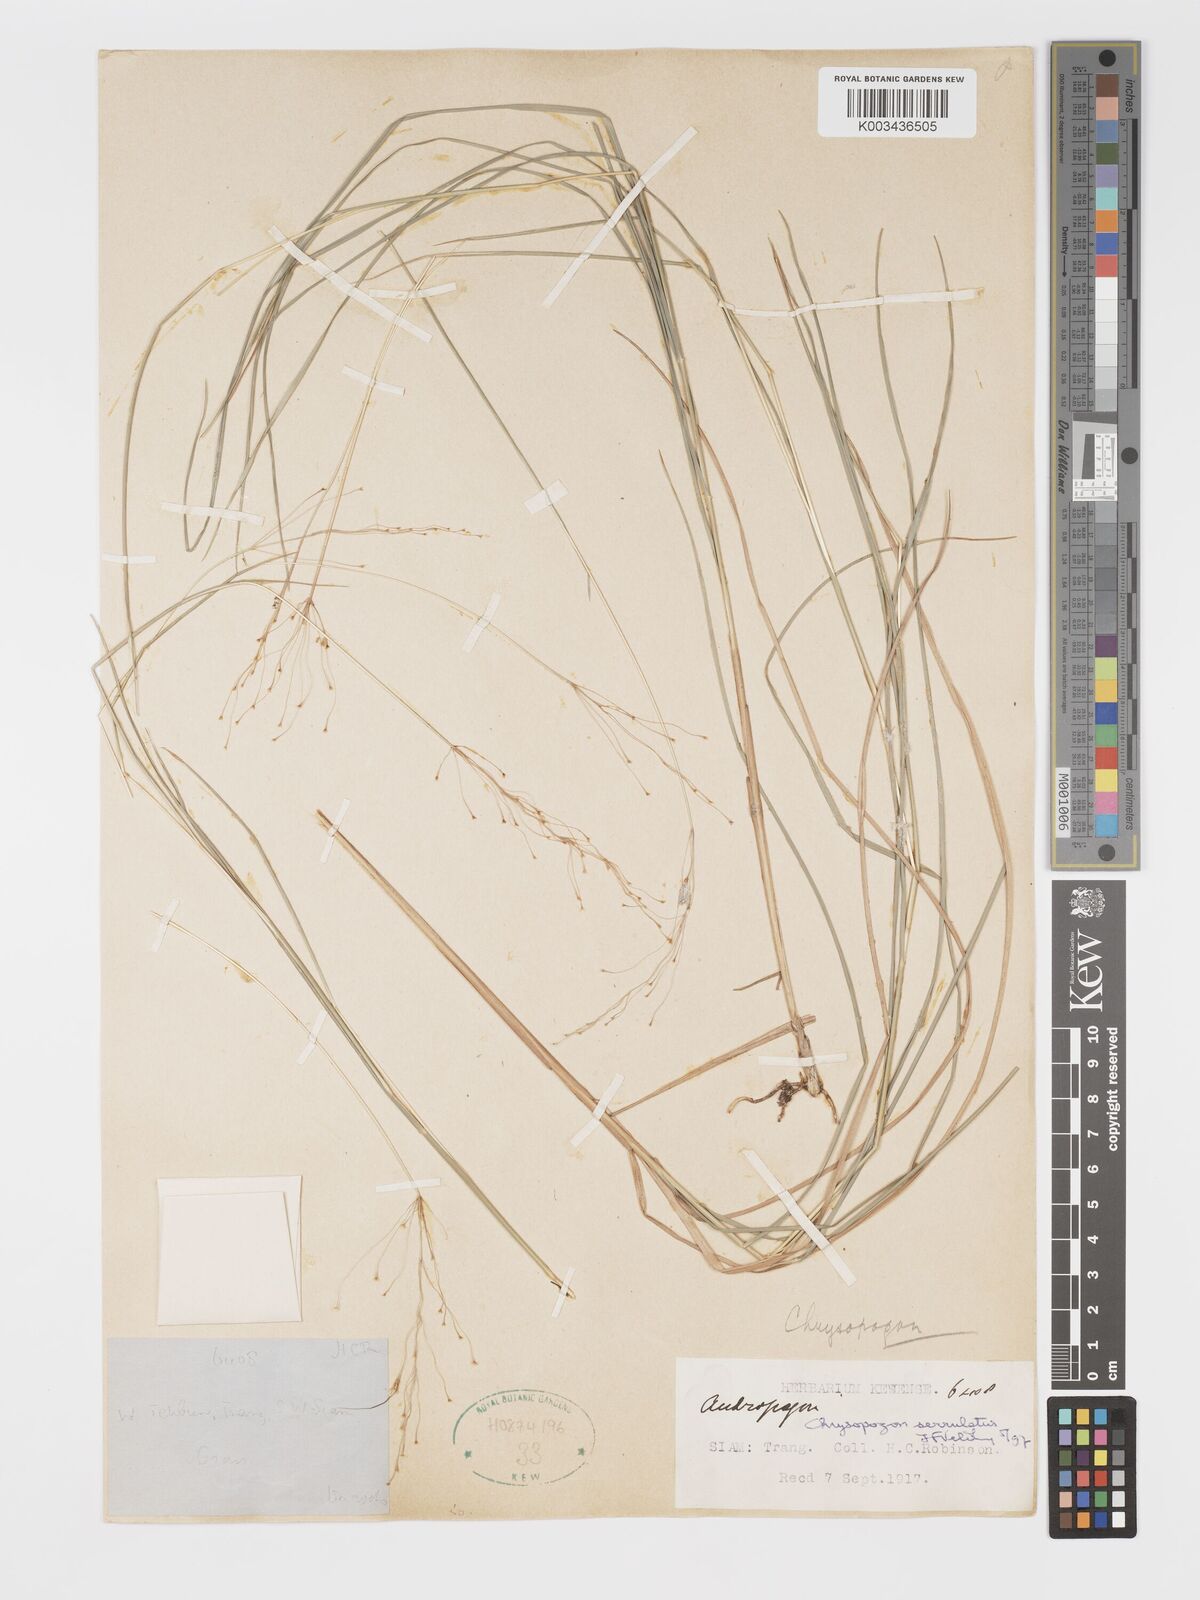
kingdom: Plantae
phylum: Tracheophyta
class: Liliopsida
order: Poales
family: Poaceae
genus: Chrysopogon
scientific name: Chrysopogon serrulatus
